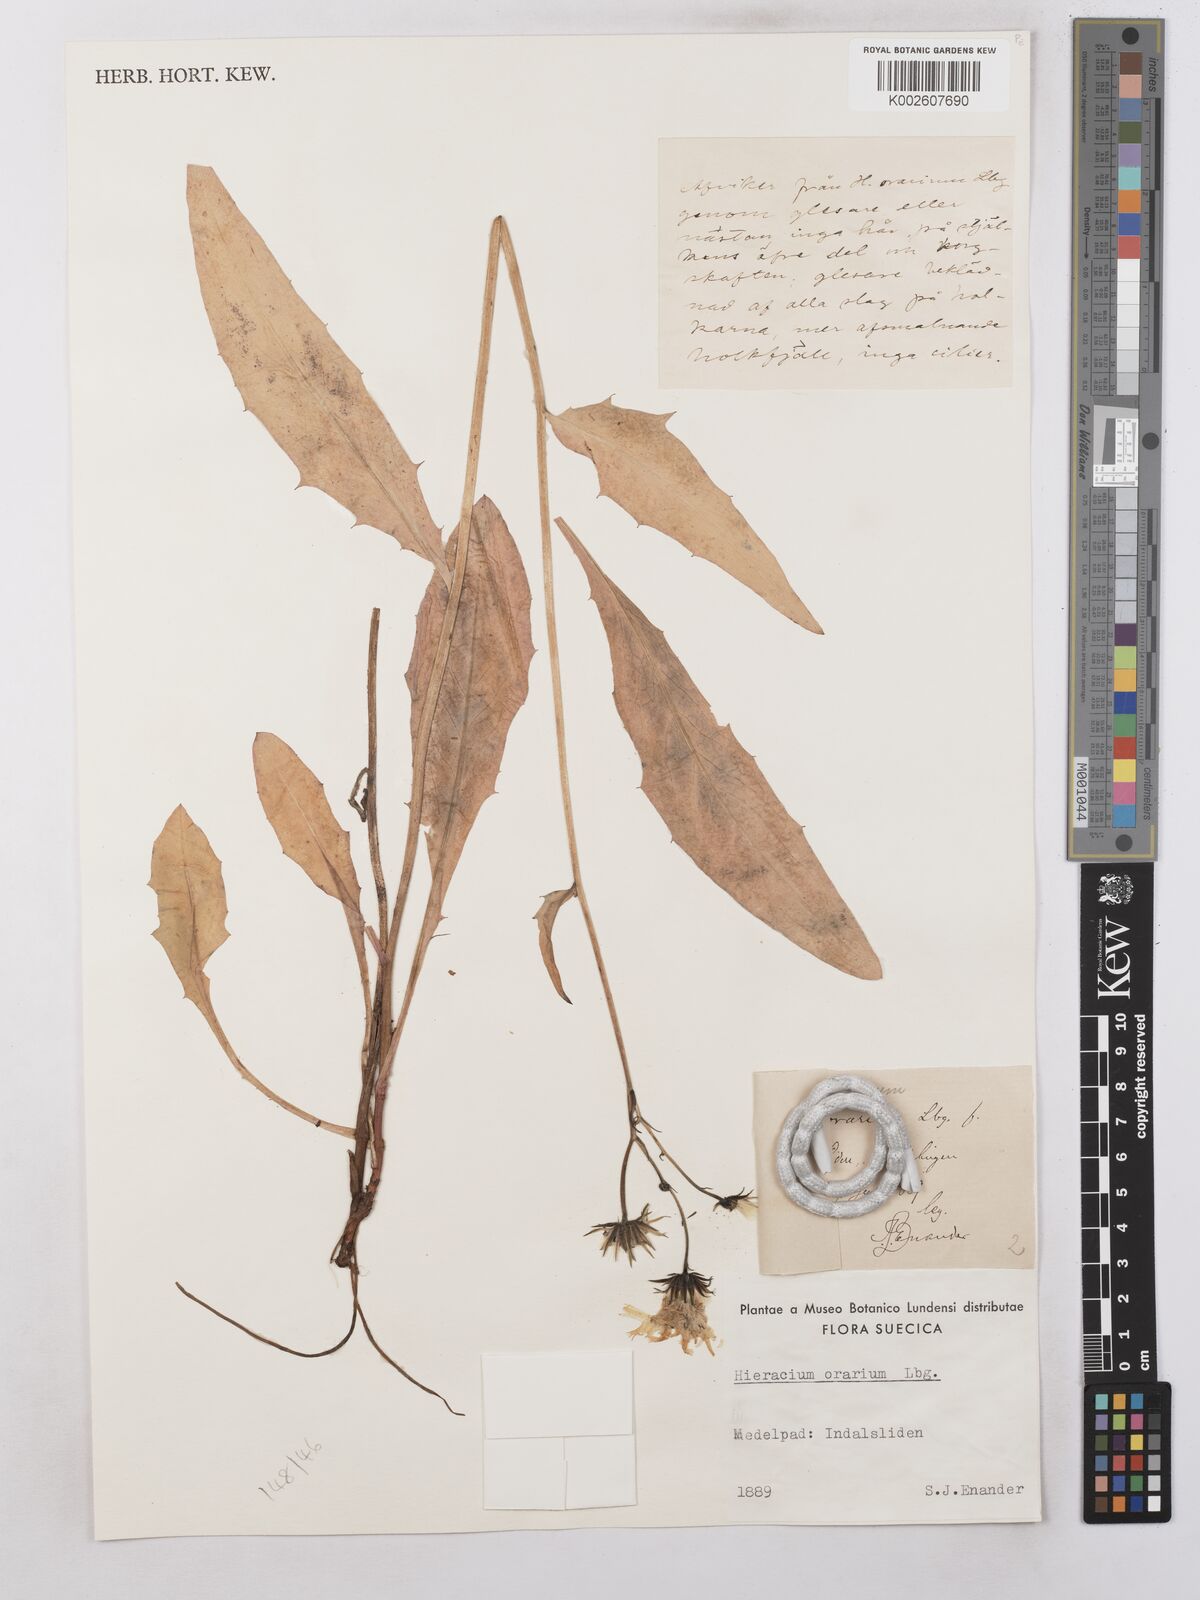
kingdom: Plantae
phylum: Tracheophyta
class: Magnoliopsida
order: Asterales
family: Asteraceae
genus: Hieracium
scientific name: Hieracium subramosum
